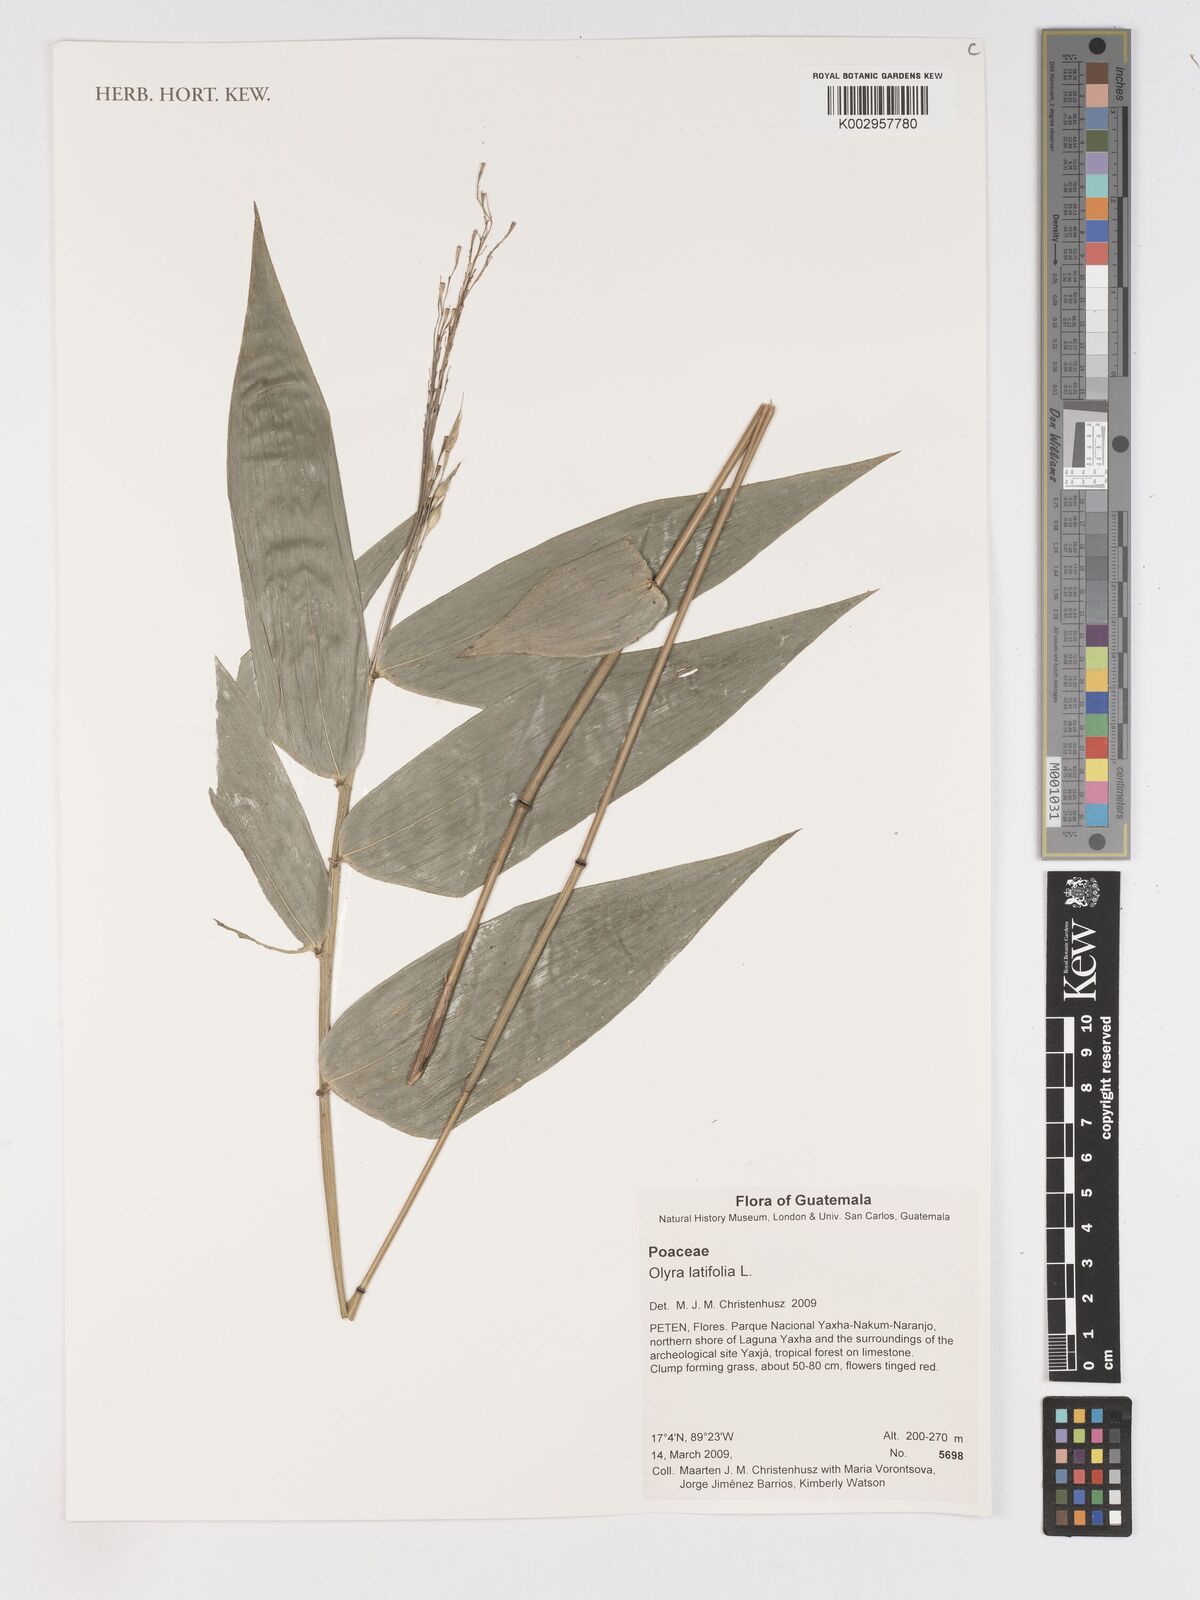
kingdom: Plantae
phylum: Tracheophyta
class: Liliopsida
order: Poales
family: Poaceae
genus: Olyra
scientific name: Olyra latifolia
